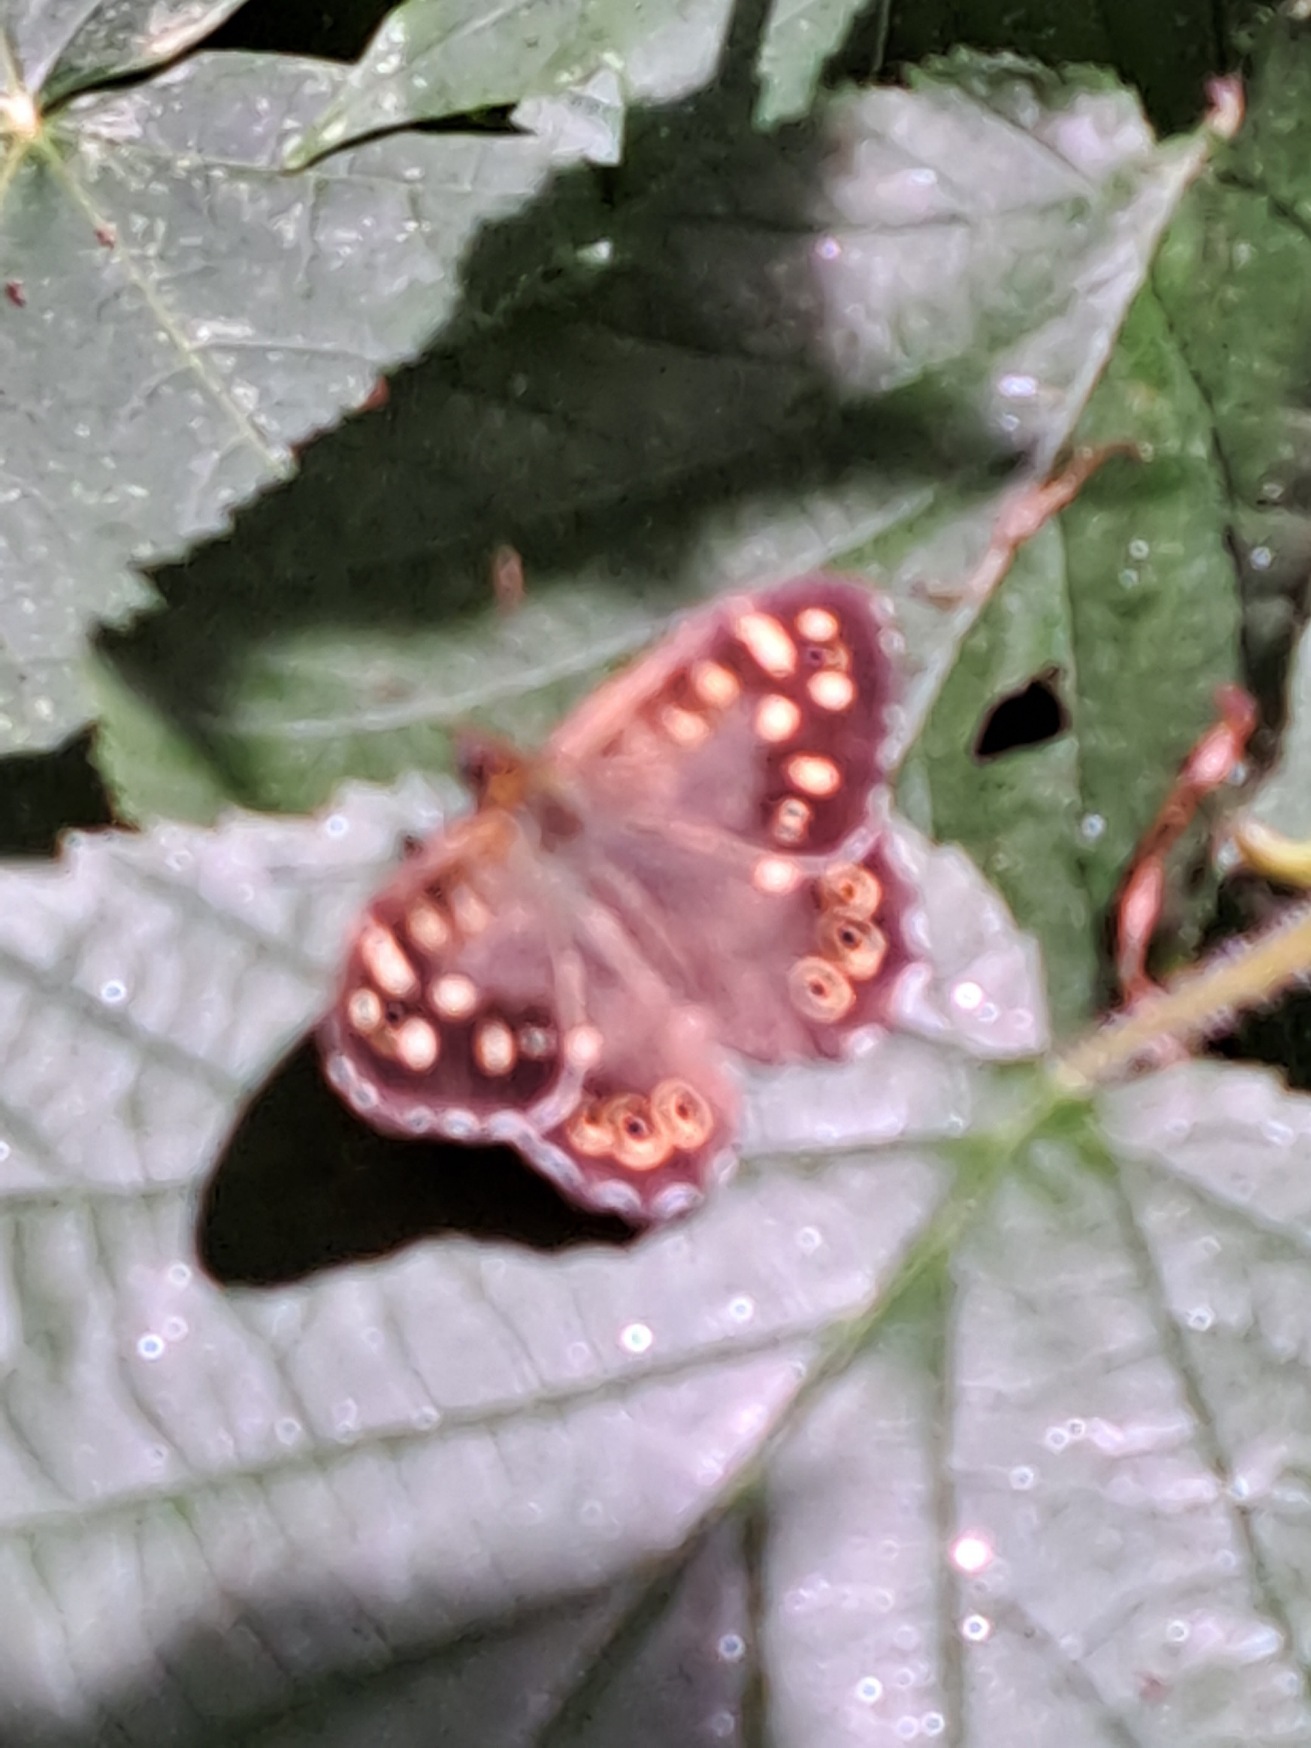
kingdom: Animalia
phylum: Arthropoda
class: Insecta
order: Lepidoptera
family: Nymphalidae
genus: Pararge
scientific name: Pararge aegeria
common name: Skovrandøje
